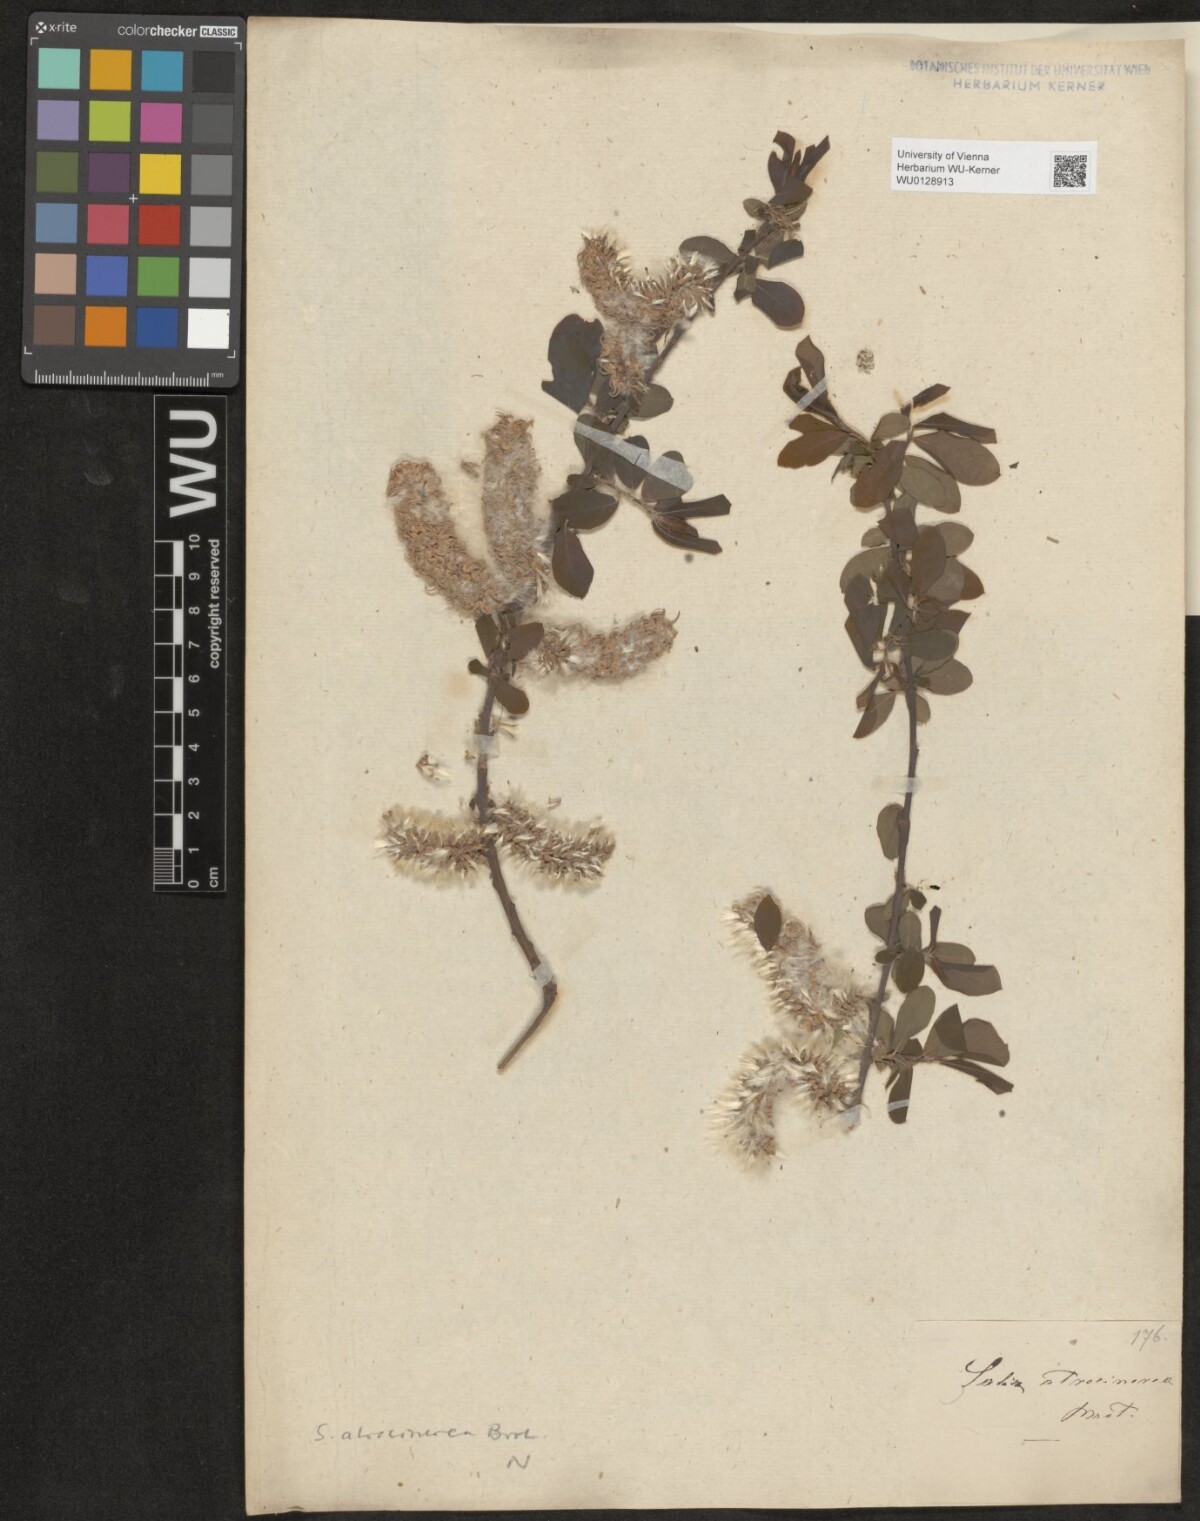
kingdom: Plantae
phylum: Tracheophyta
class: Magnoliopsida
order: Malpighiales
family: Salicaceae
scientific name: Salicaceae
